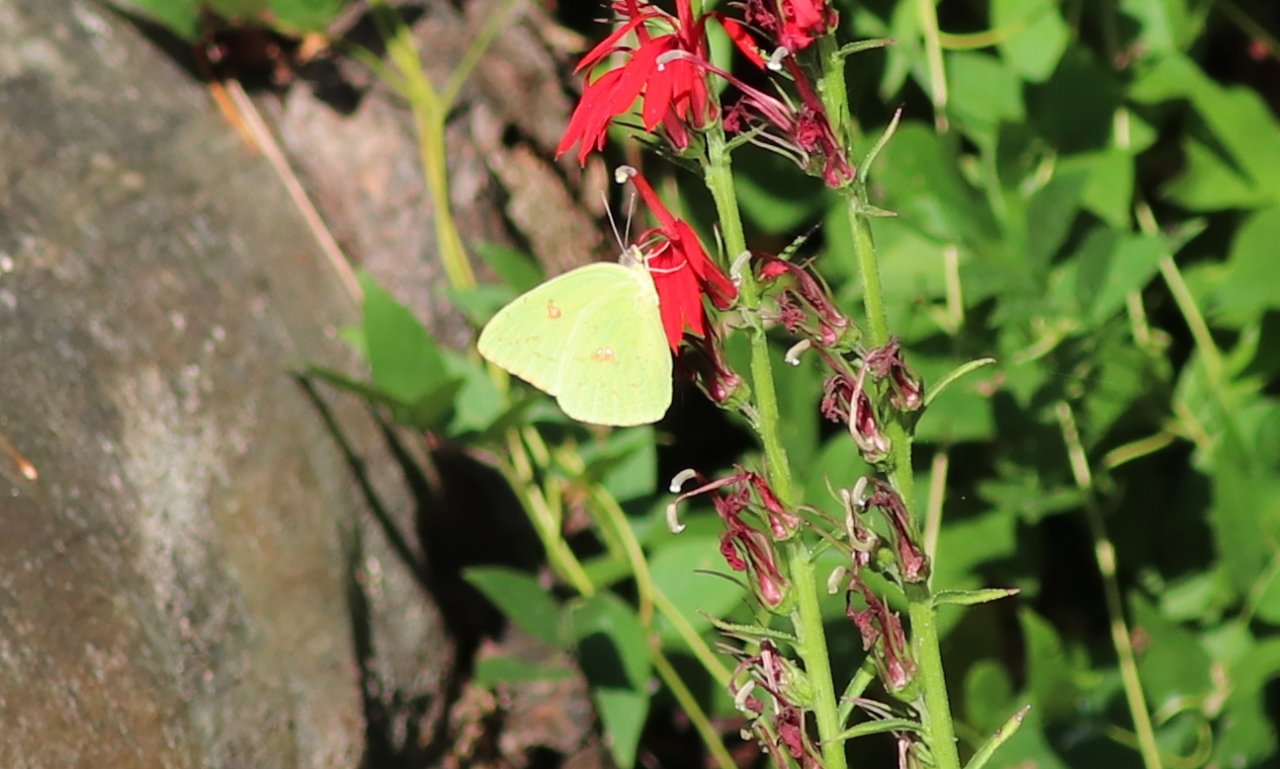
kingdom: Animalia
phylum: Arthropoda
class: Insecta
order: Lepidoptera
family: Pieridae
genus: Phoebis
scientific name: Phoebis sennae
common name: Cloudless Sulphur
